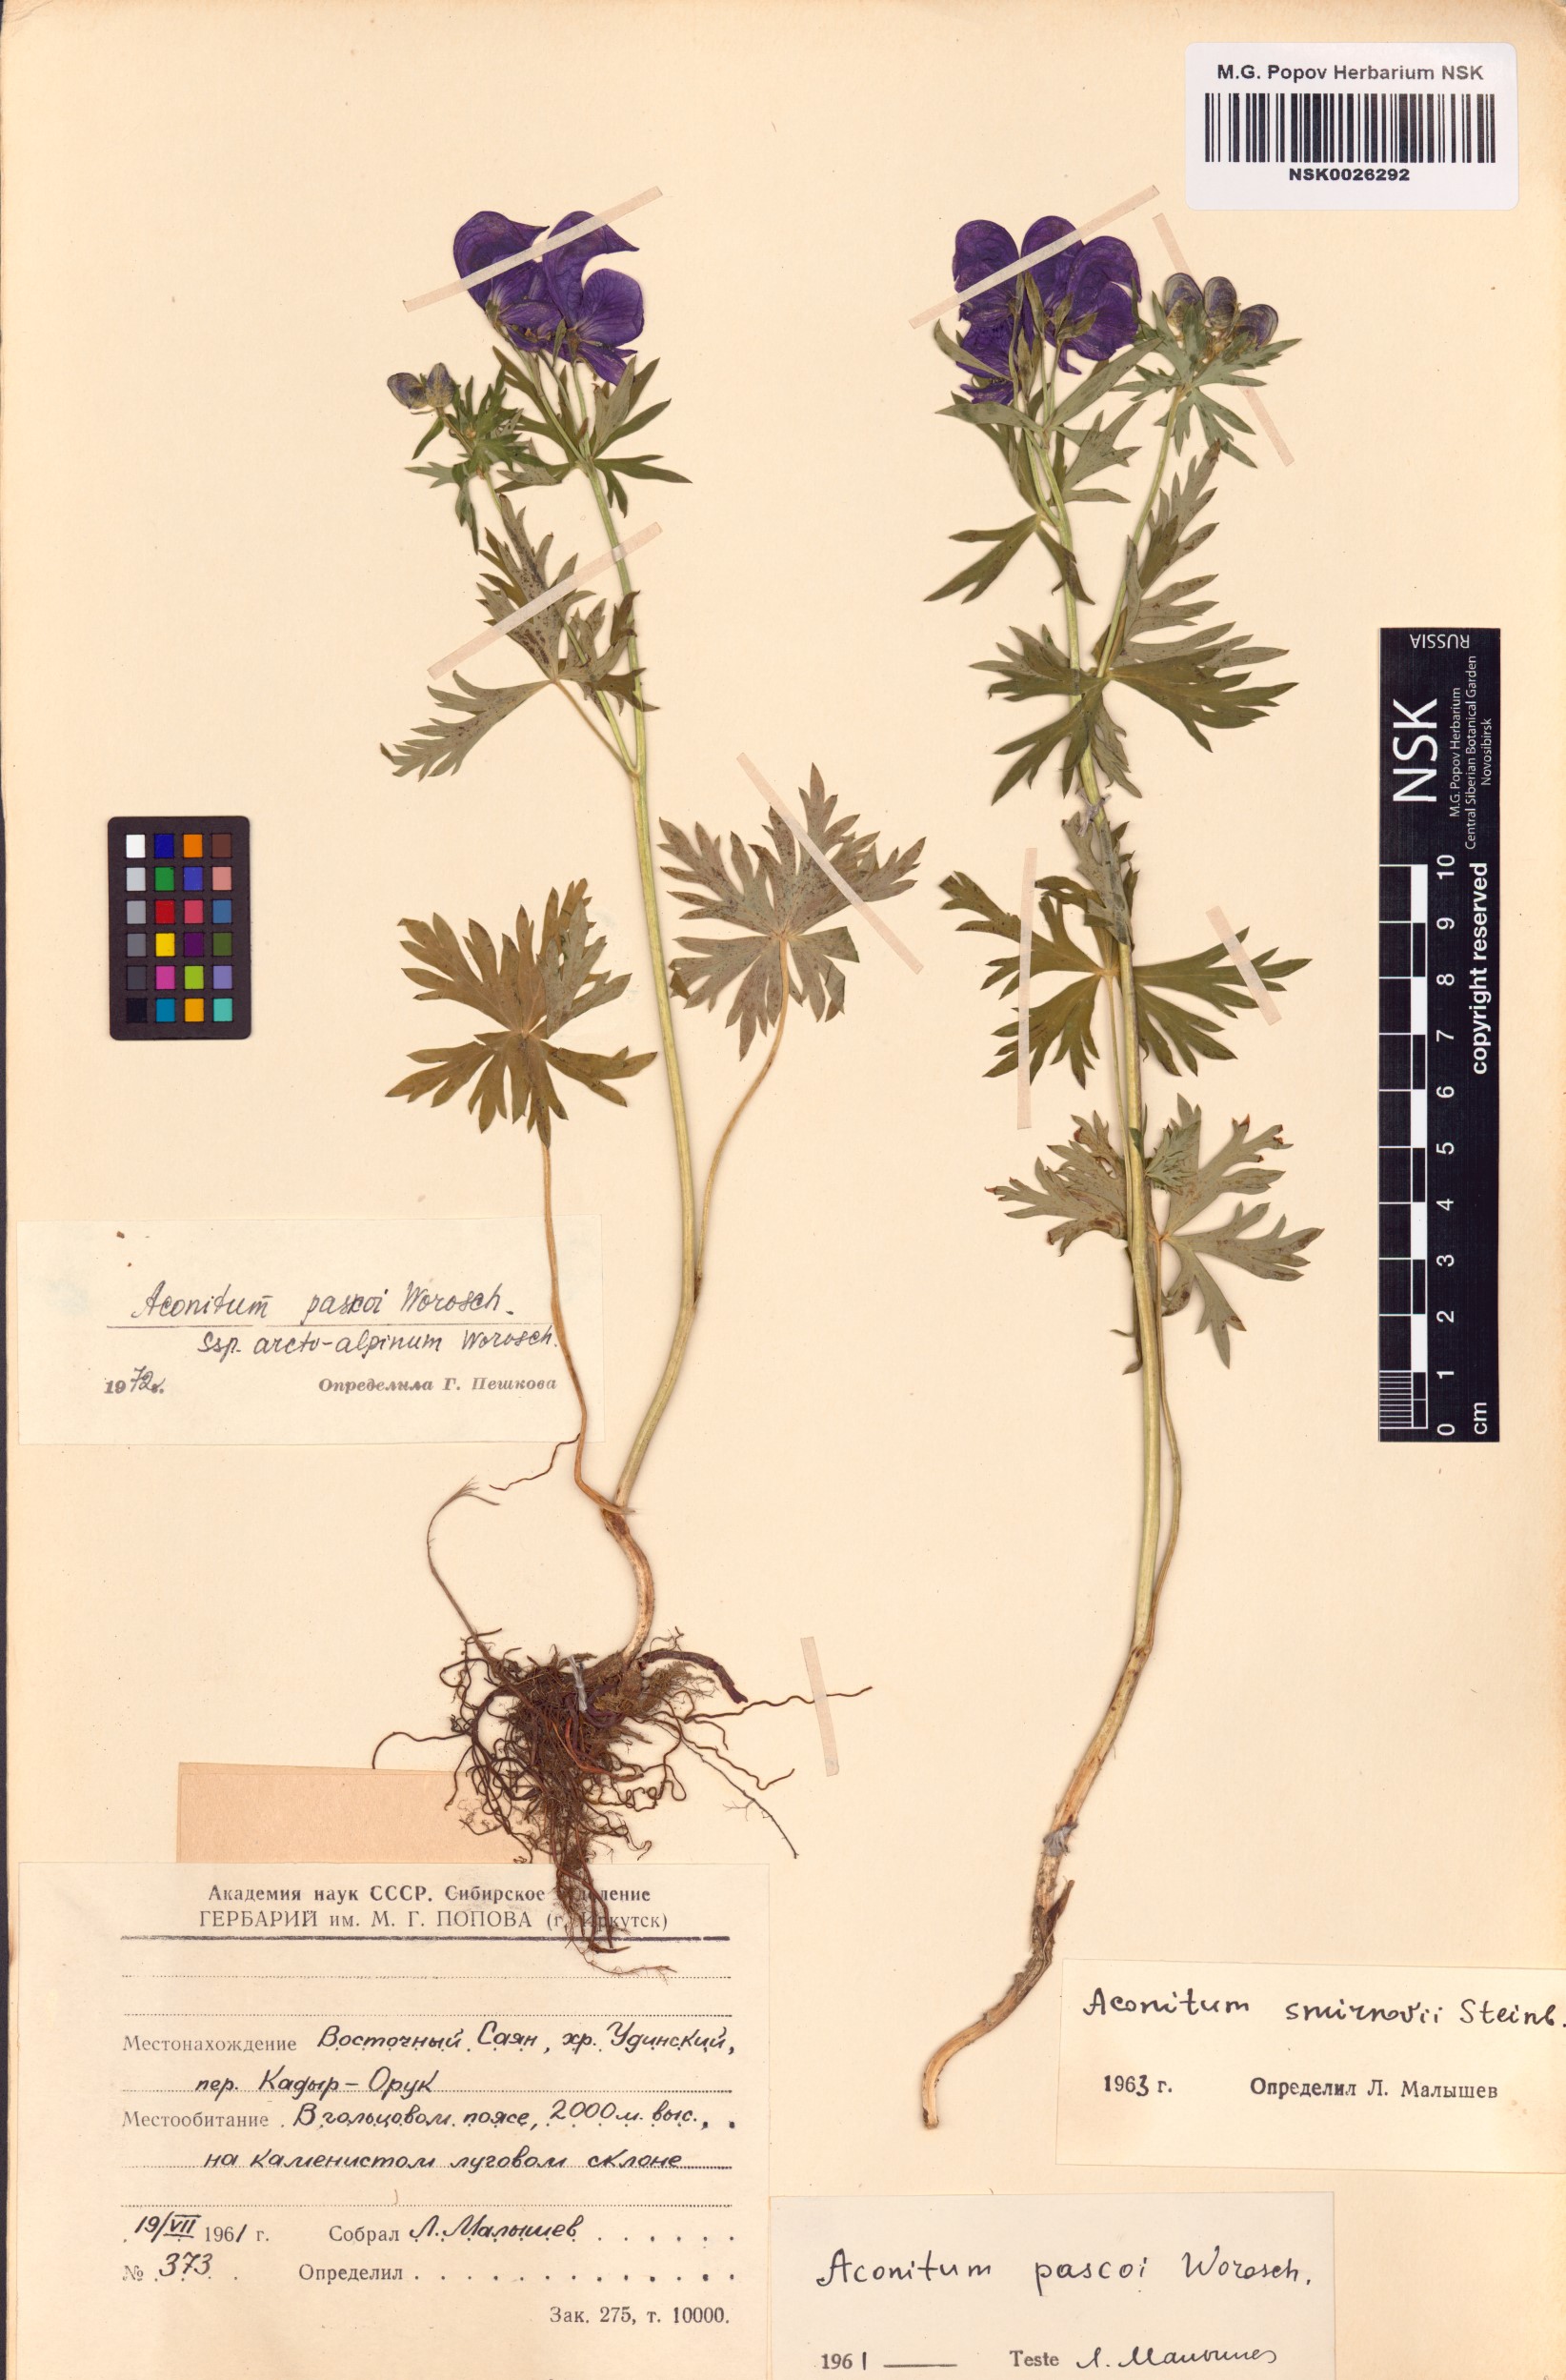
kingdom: Plantae
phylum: Tracheophyta
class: Magnoliopsida
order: Ranunculales
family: Ranunculaceae
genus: Aconitum
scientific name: Aconitum pascoi
